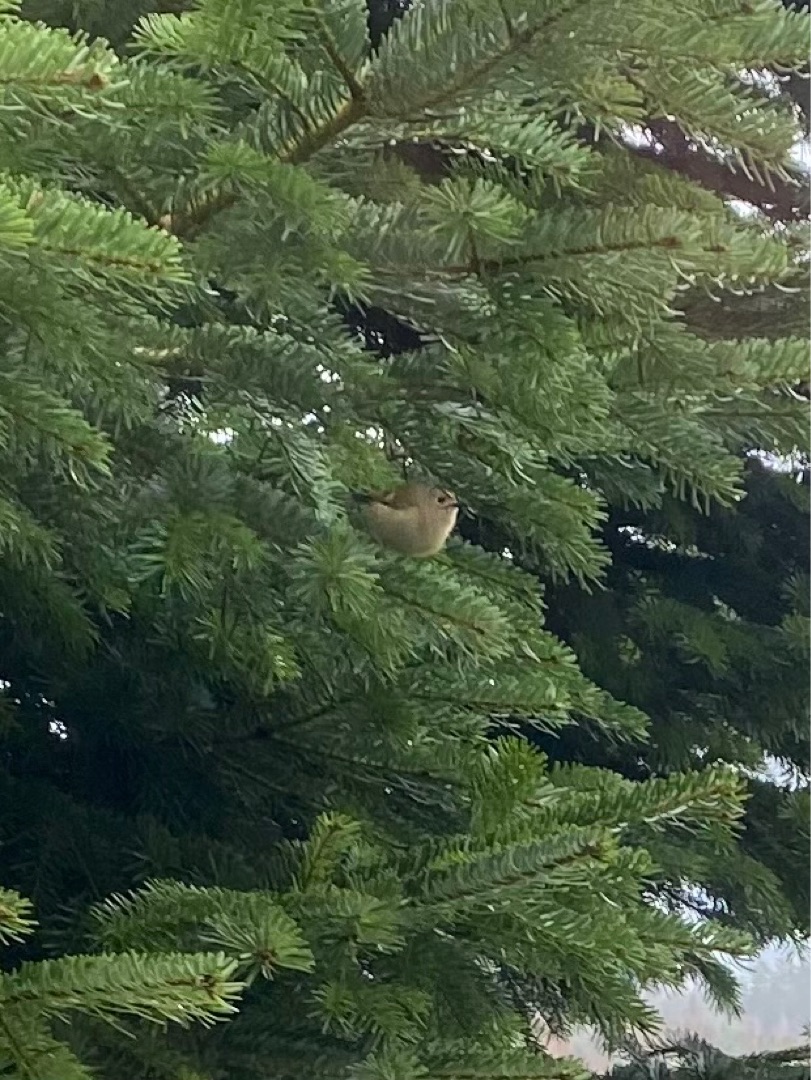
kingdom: Animalia
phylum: Chordata
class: Aves
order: Passeriformes
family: Regulidae
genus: Regulus
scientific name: Regulus regulus
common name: Fuglekonge
